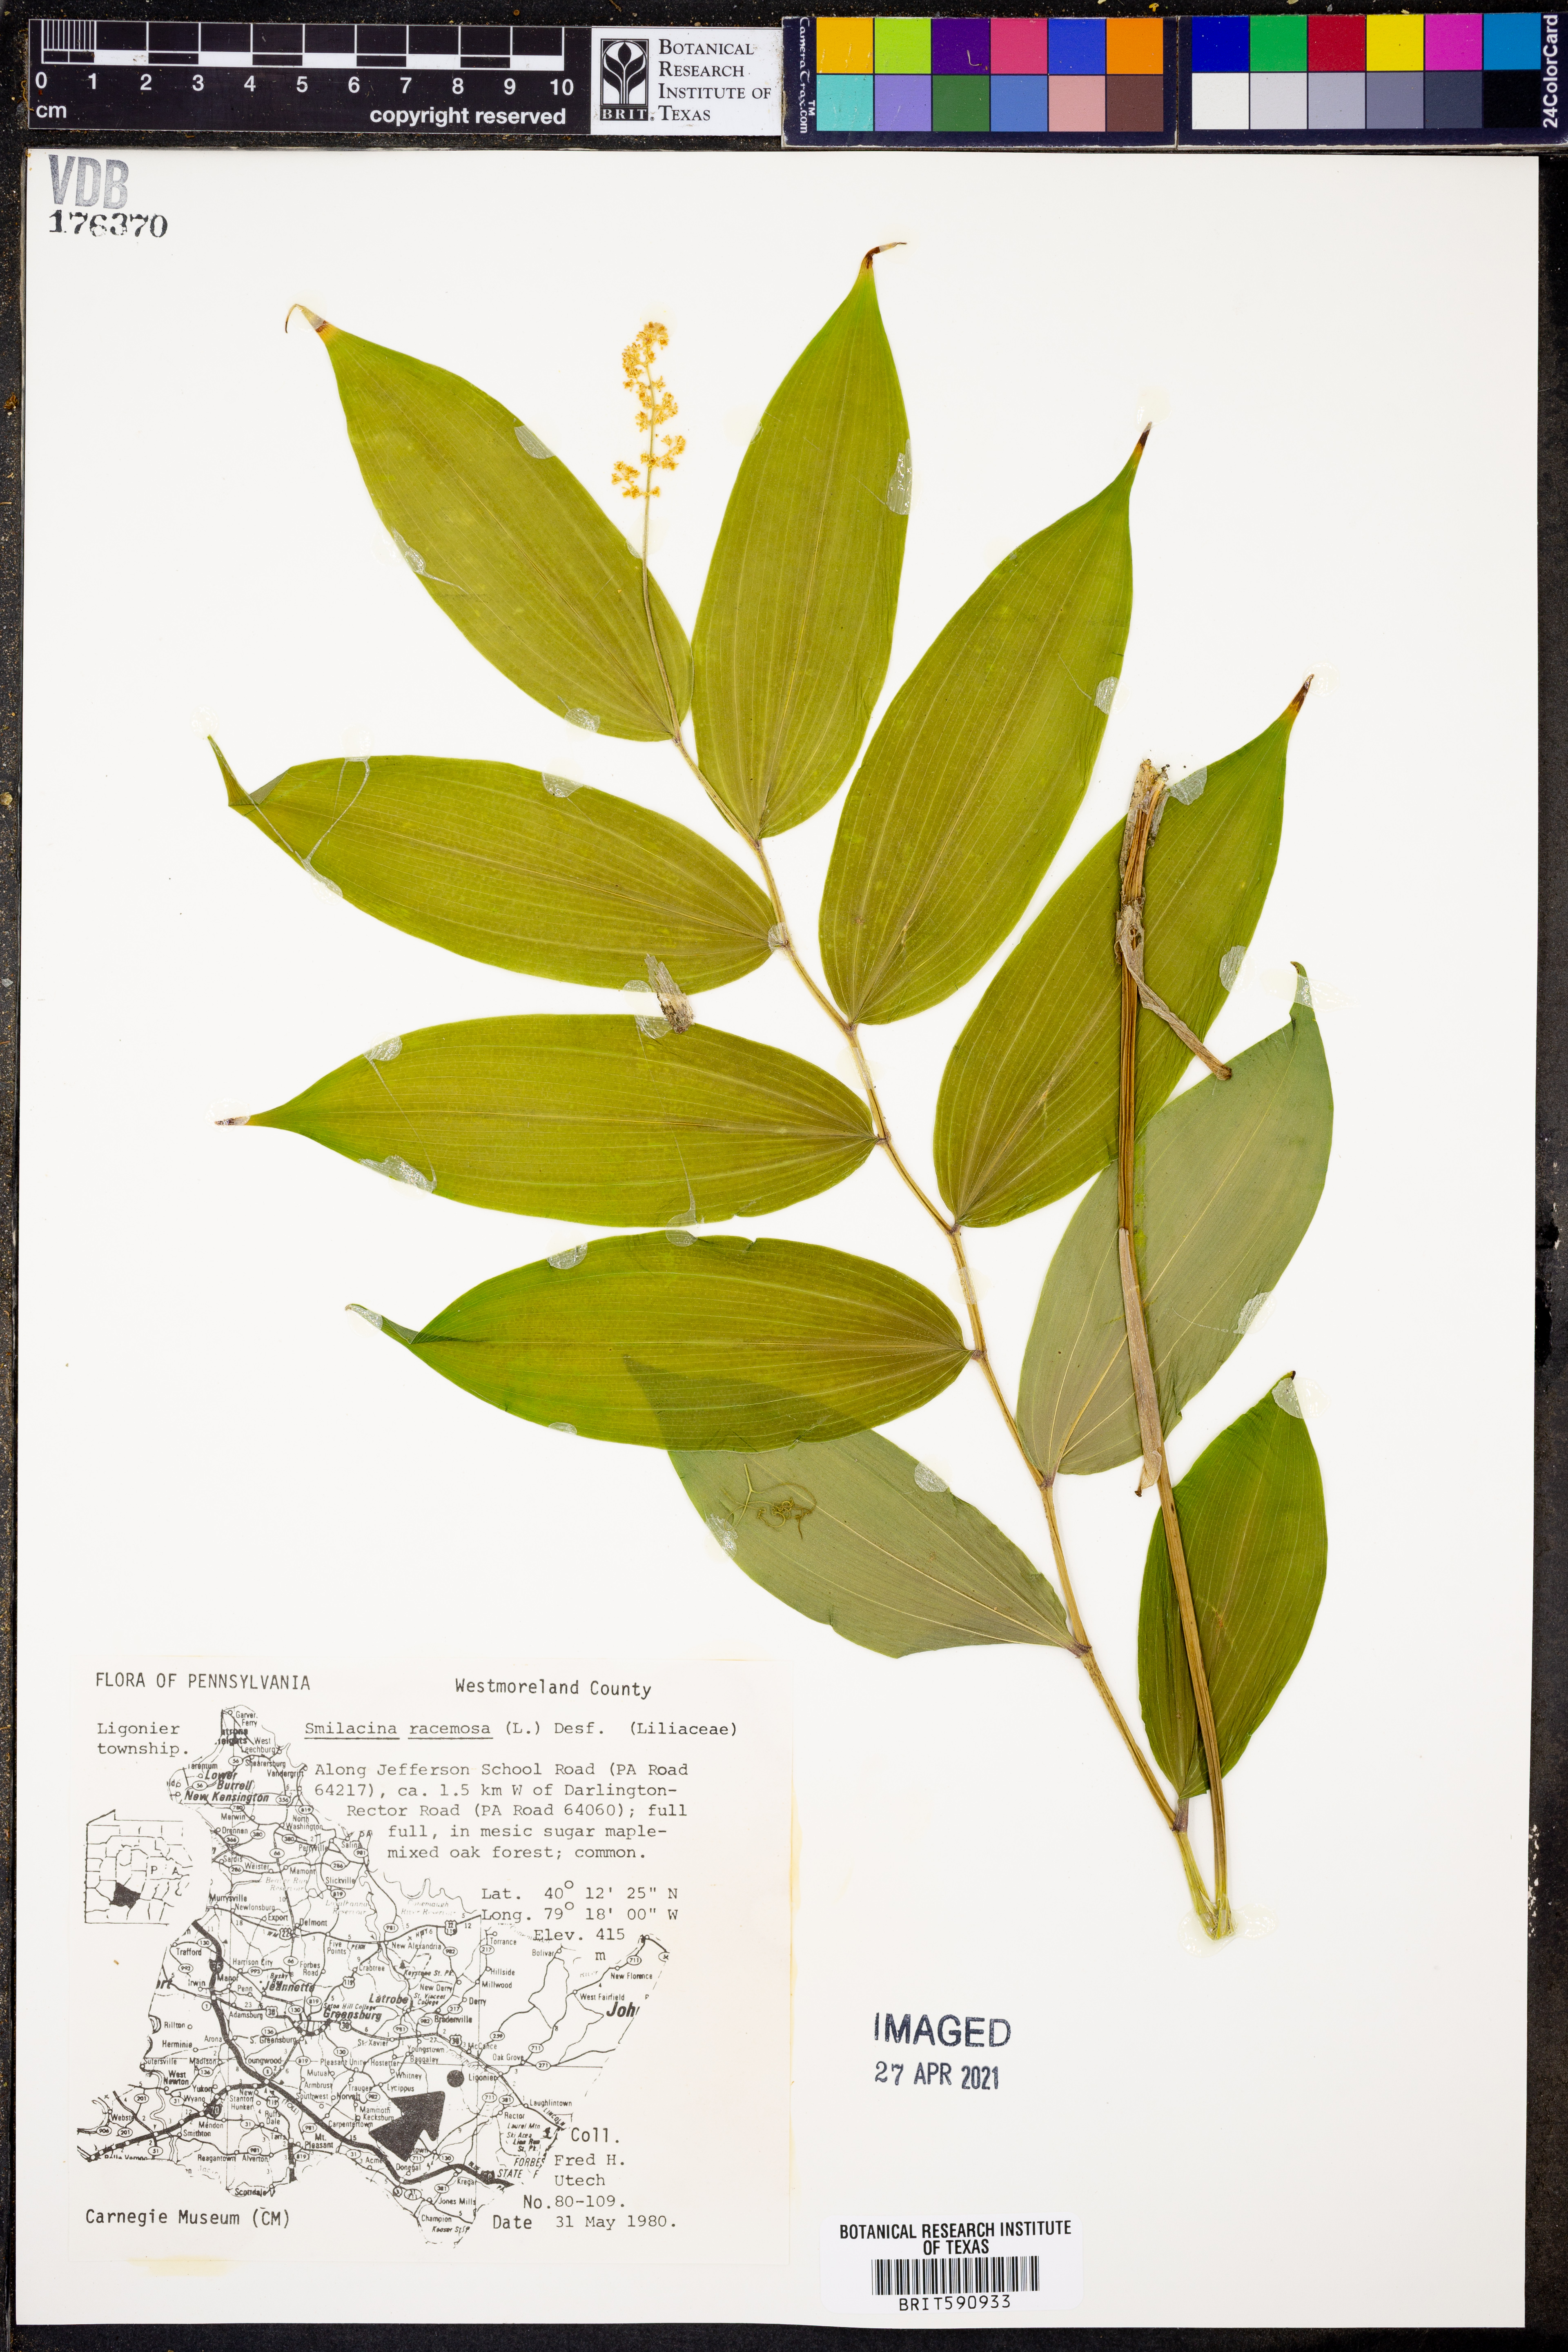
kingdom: Plantae
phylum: Tracheophyta
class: Liliopsida
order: Asparagales
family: Asparagaceae
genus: Maianthemum
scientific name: Maianthemum racemosum
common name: False spikenard
